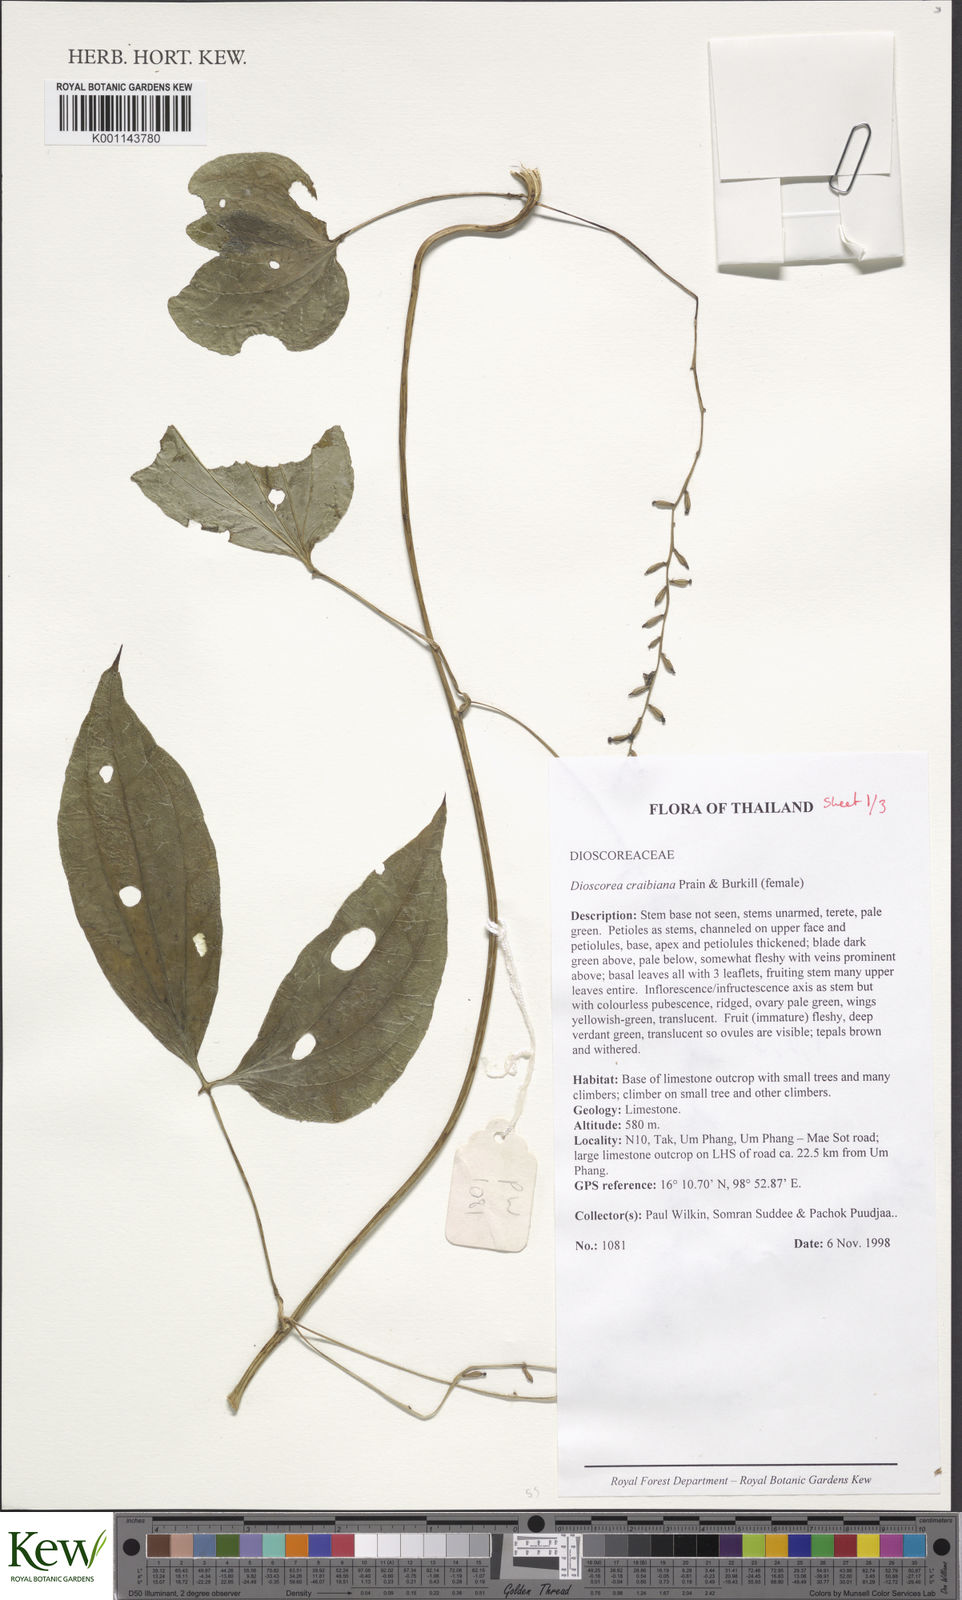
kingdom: Plantae
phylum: Tracheophyta
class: Liliopsida
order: Dioscoreales
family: Dioscoreaceae
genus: Dioscorea
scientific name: Dioscorea craibiana
